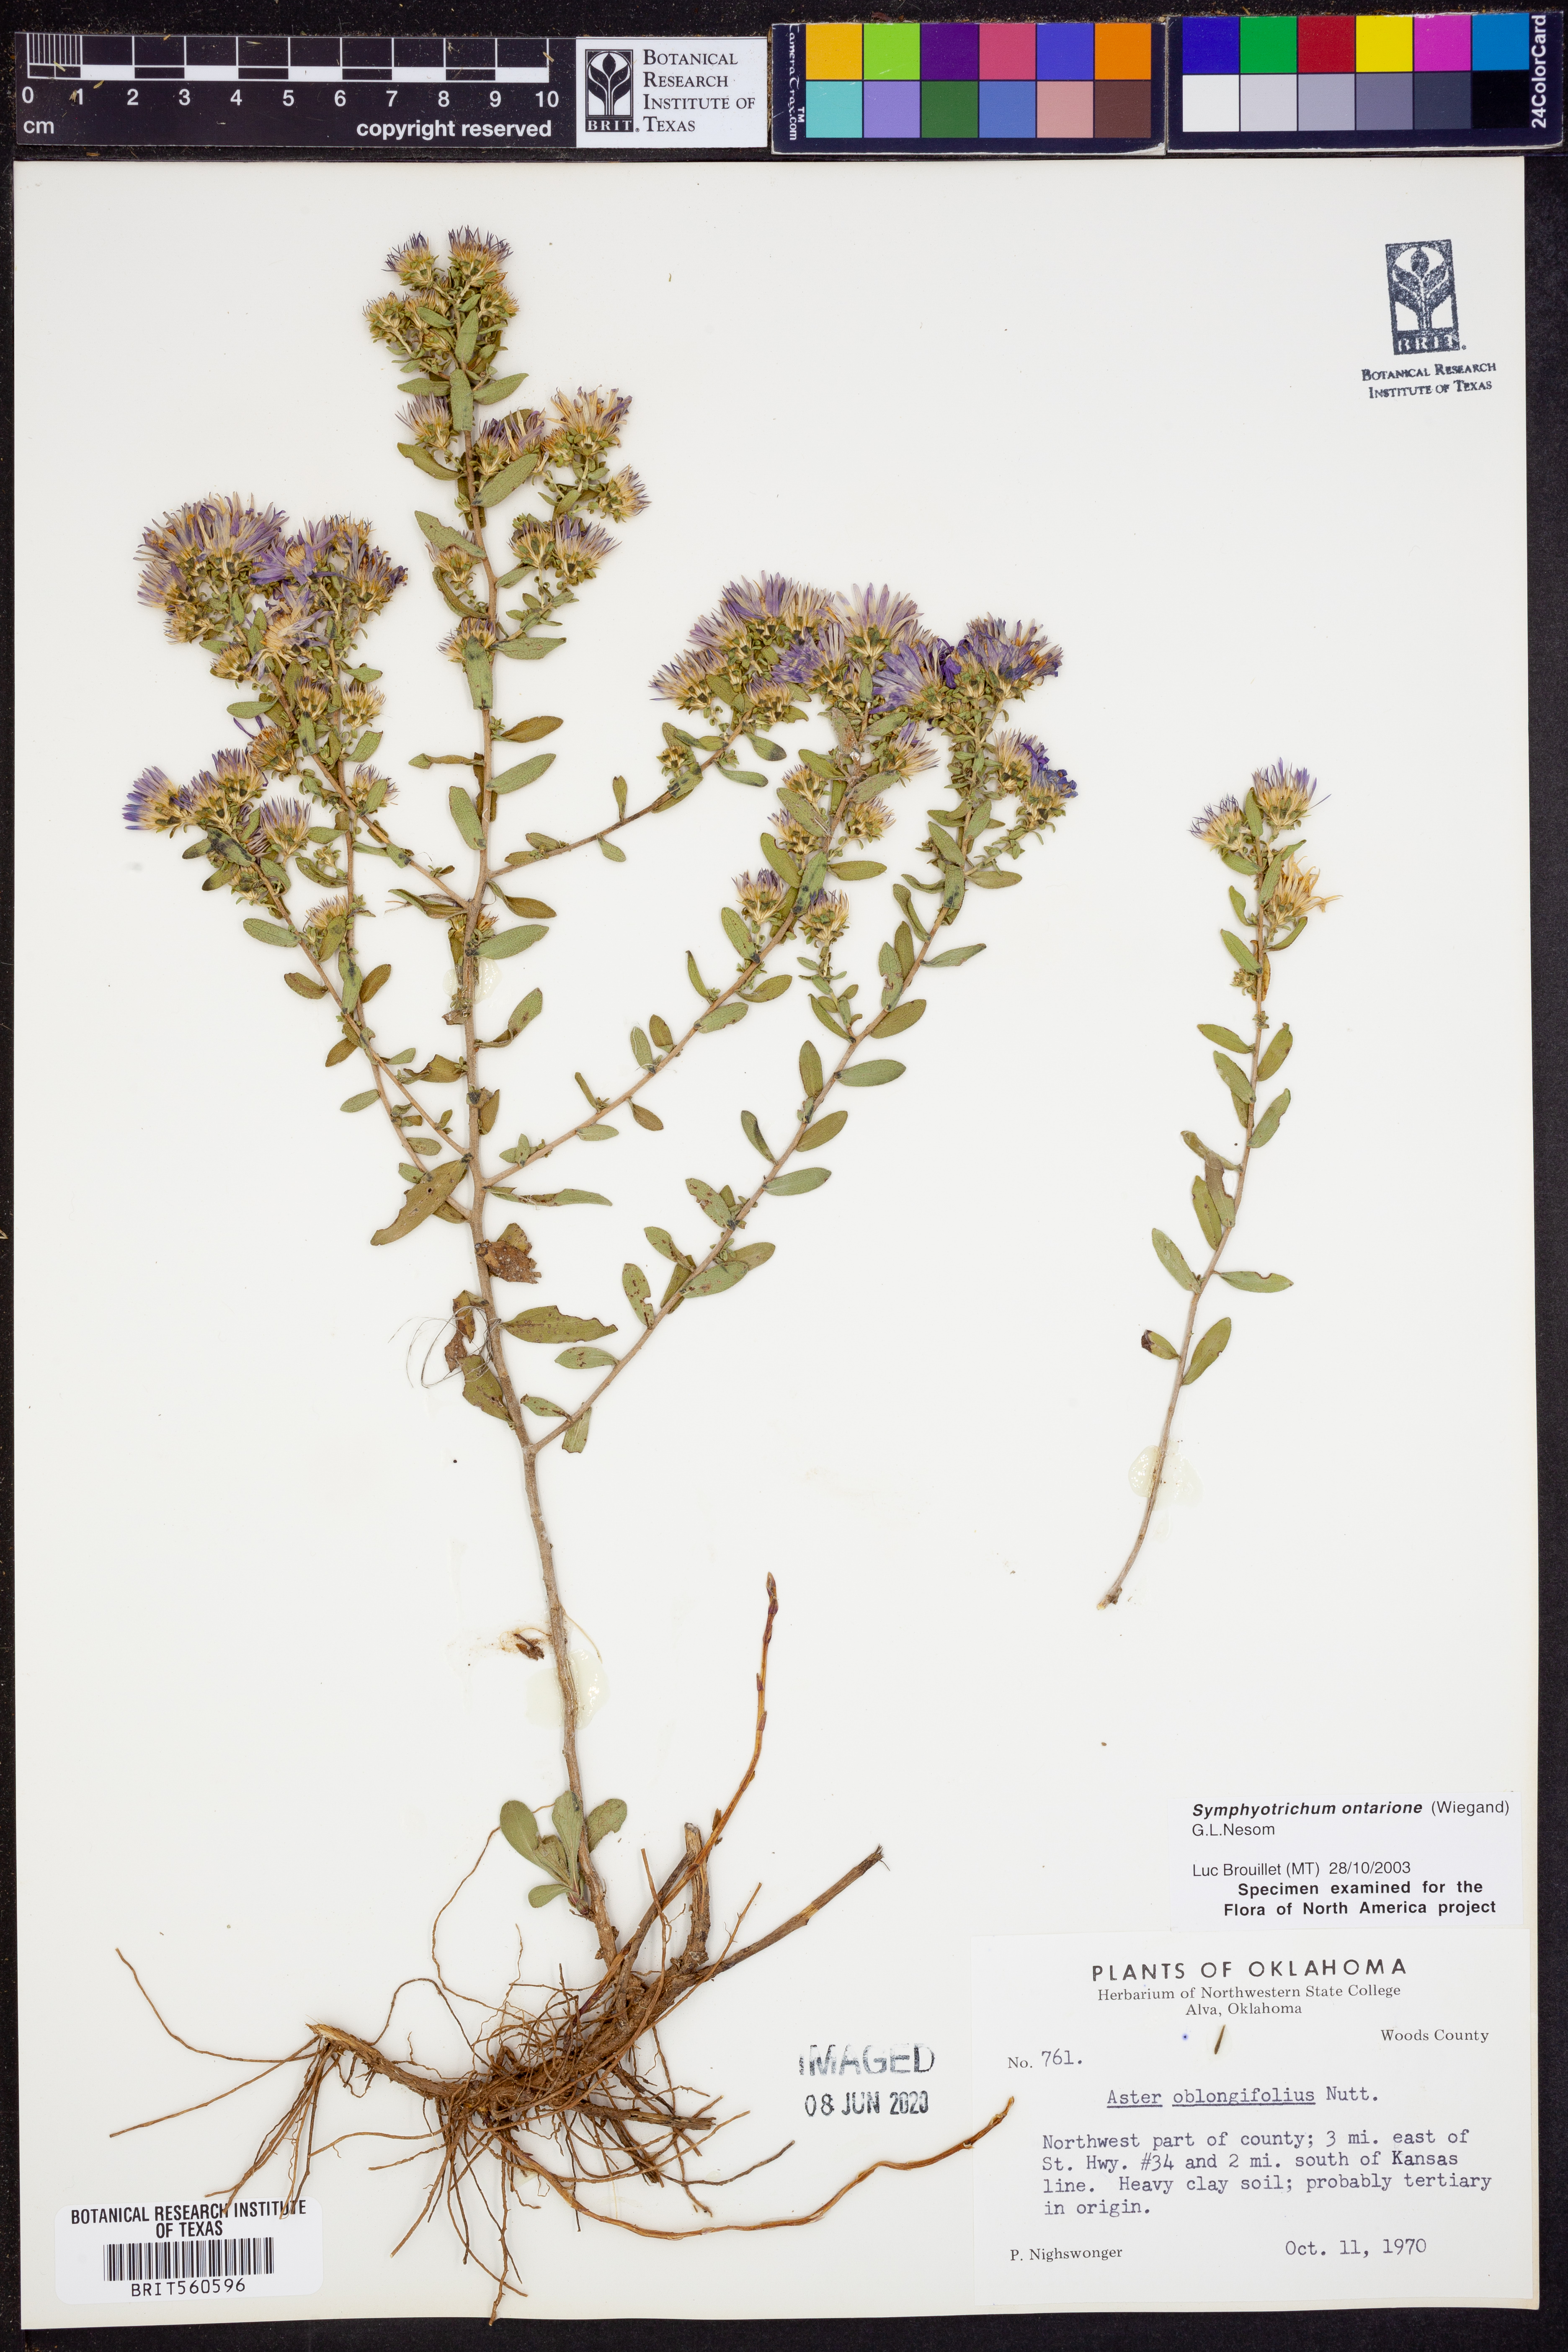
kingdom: Plantae
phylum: Tracheophyta
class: Magnoliopsida
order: Asterales
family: Asteraceae
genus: Symphyotrichum
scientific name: Symphyotrichum ontarionis
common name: Bottomland aster
